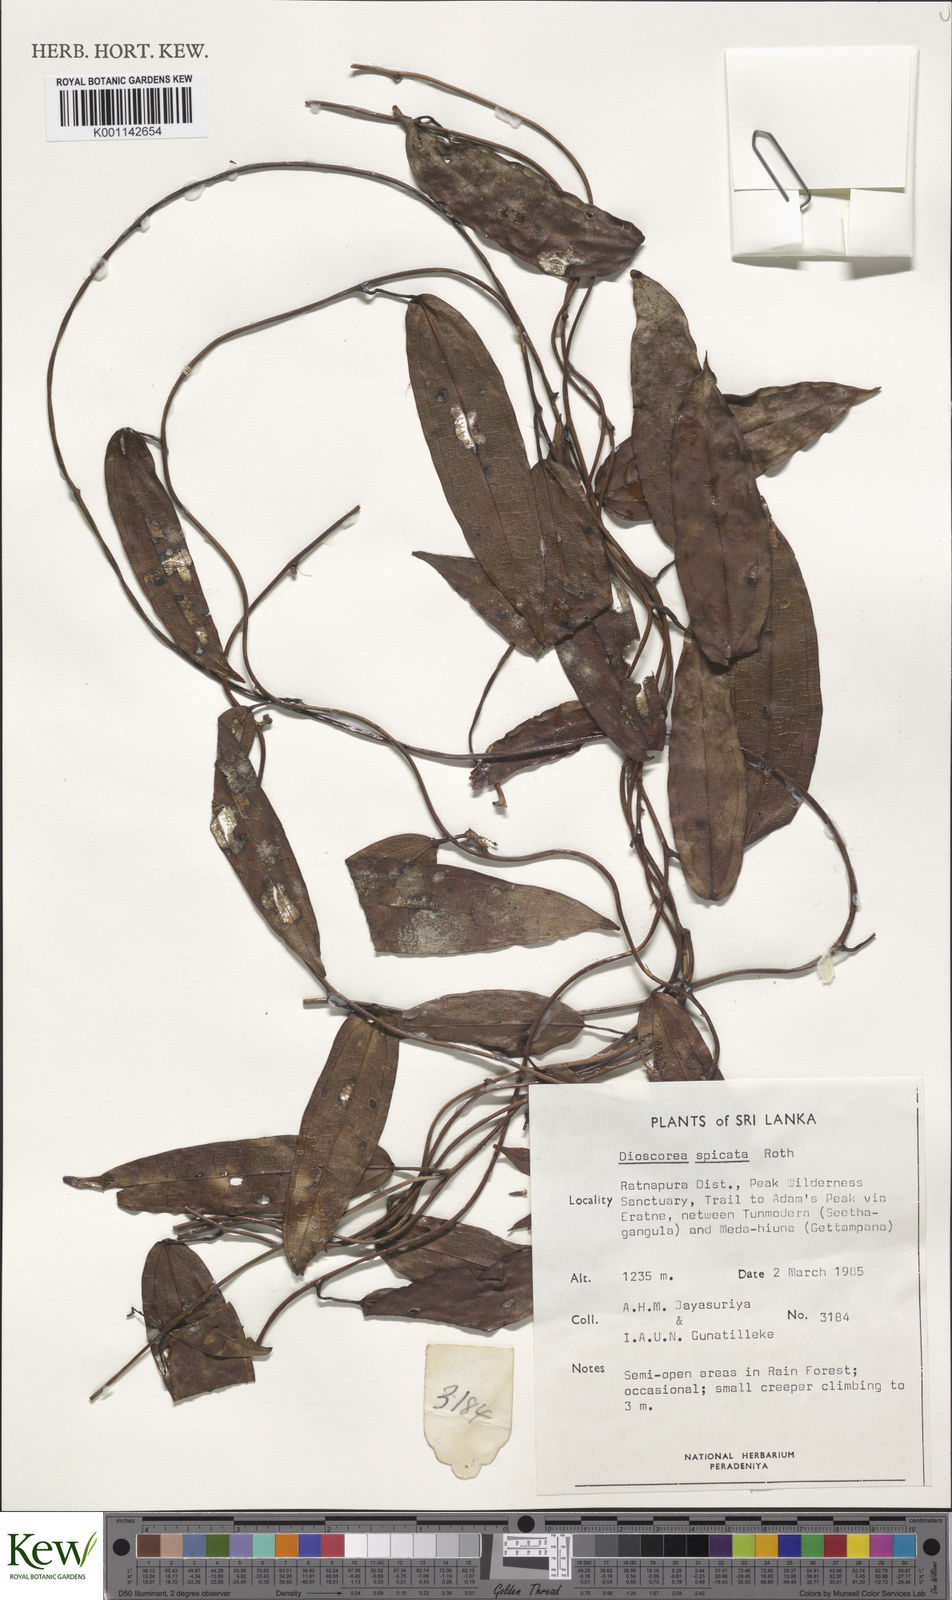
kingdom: Plantae
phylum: Tracheophyta
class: Liliopsida
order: Dioscoreales
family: Dioscoreaceae
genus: Dioscorea
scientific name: Dioscorea spicata
